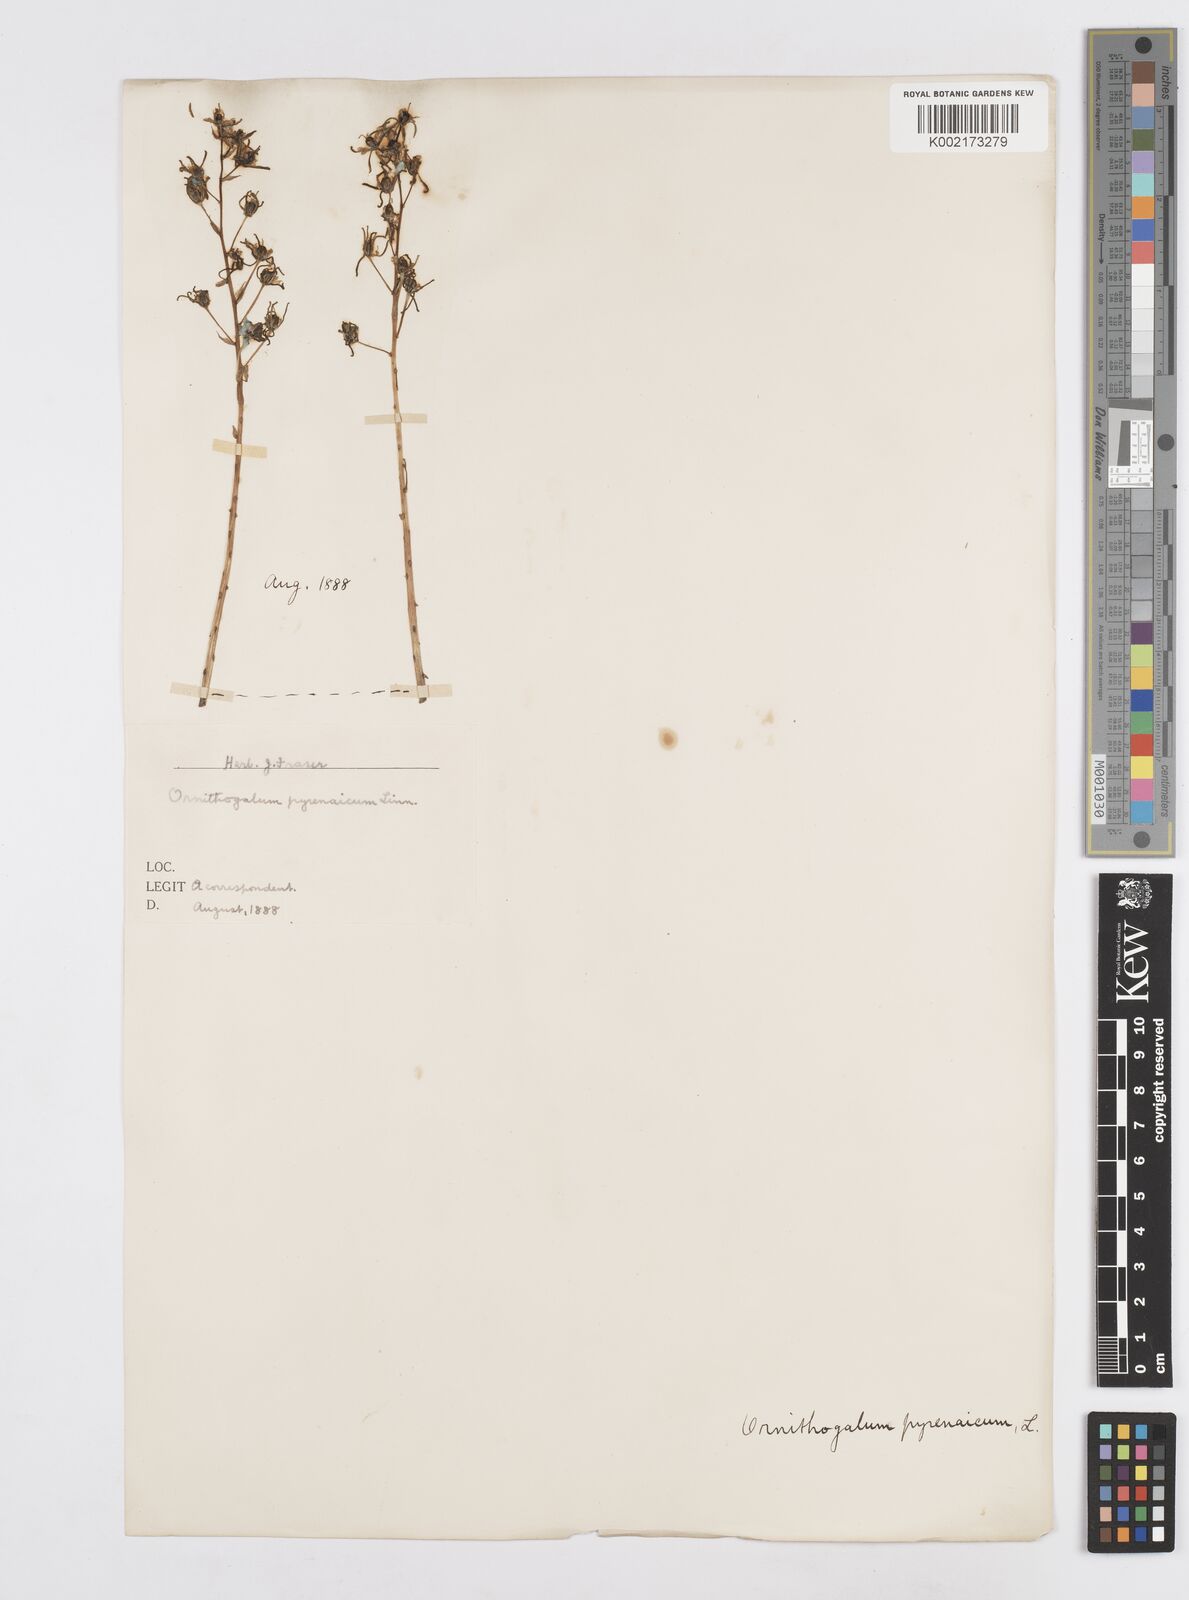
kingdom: Plantae
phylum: Tracheophyta
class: Liliopsida
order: Asparagales
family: Asparagaceae
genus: Ornithogalum
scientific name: Ornithogalum pyrenaicum
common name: Spiked star-of-bethlehem
